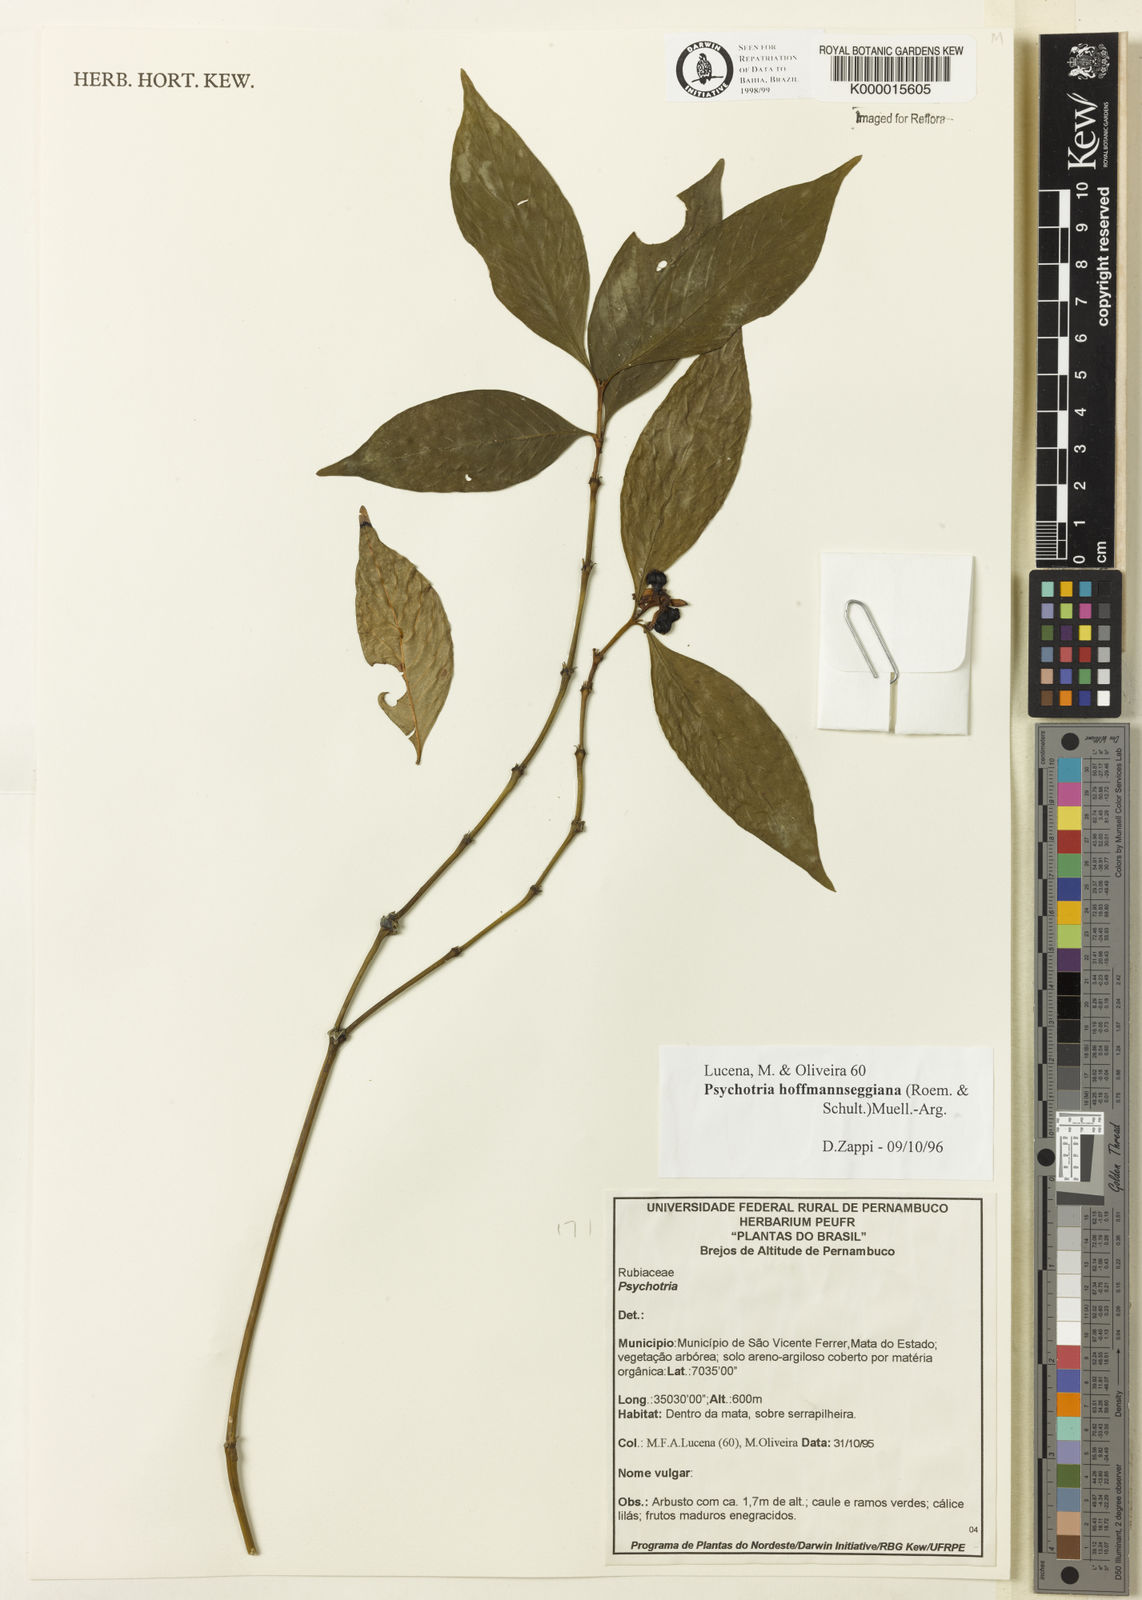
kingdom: Plantae
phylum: Tracheophyta
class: Magnoliopsida
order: Gentianales
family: Rubiaceae
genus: Psychotria
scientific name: Psychotria
